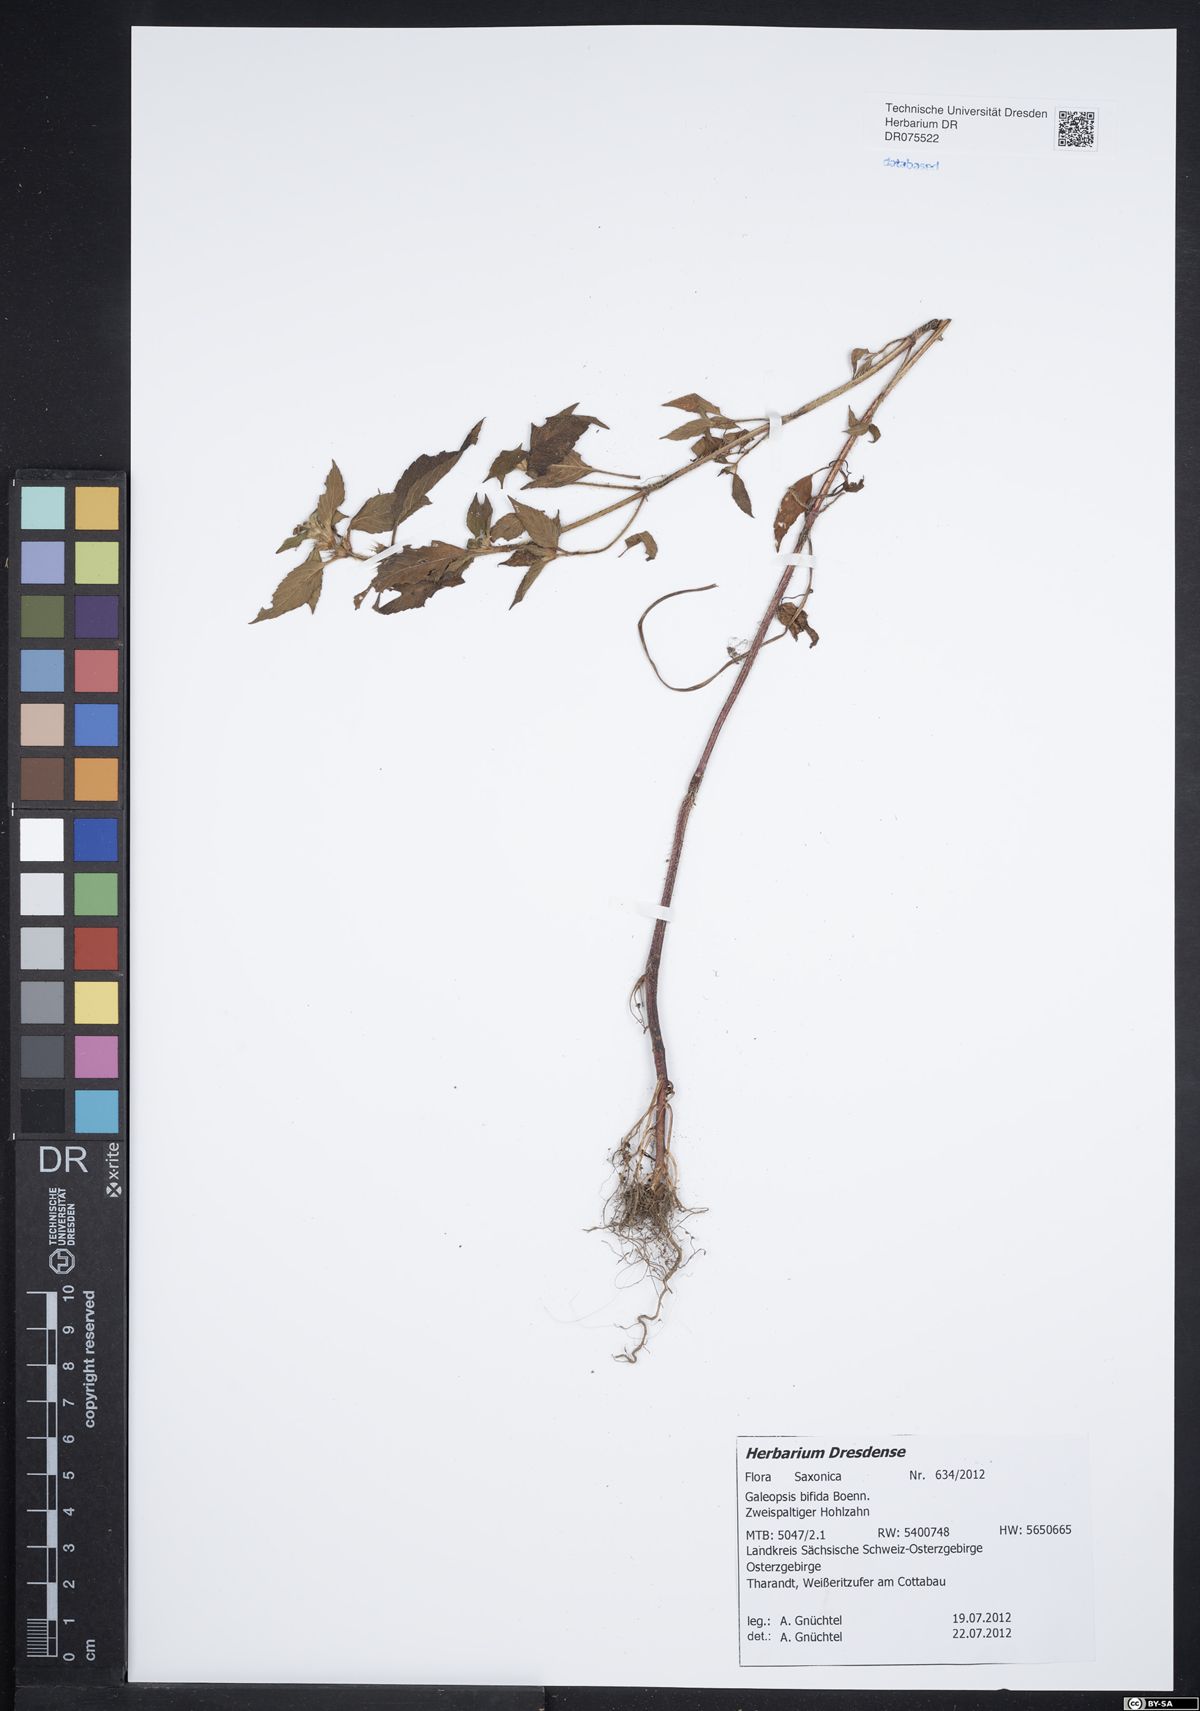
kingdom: Plantae
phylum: Tracheophyta
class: Magnoliopsida
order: Lamiales
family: Lamiaceae
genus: Galeopsis
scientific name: Galeopsis bifida
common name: Bifid hemp-nettle
